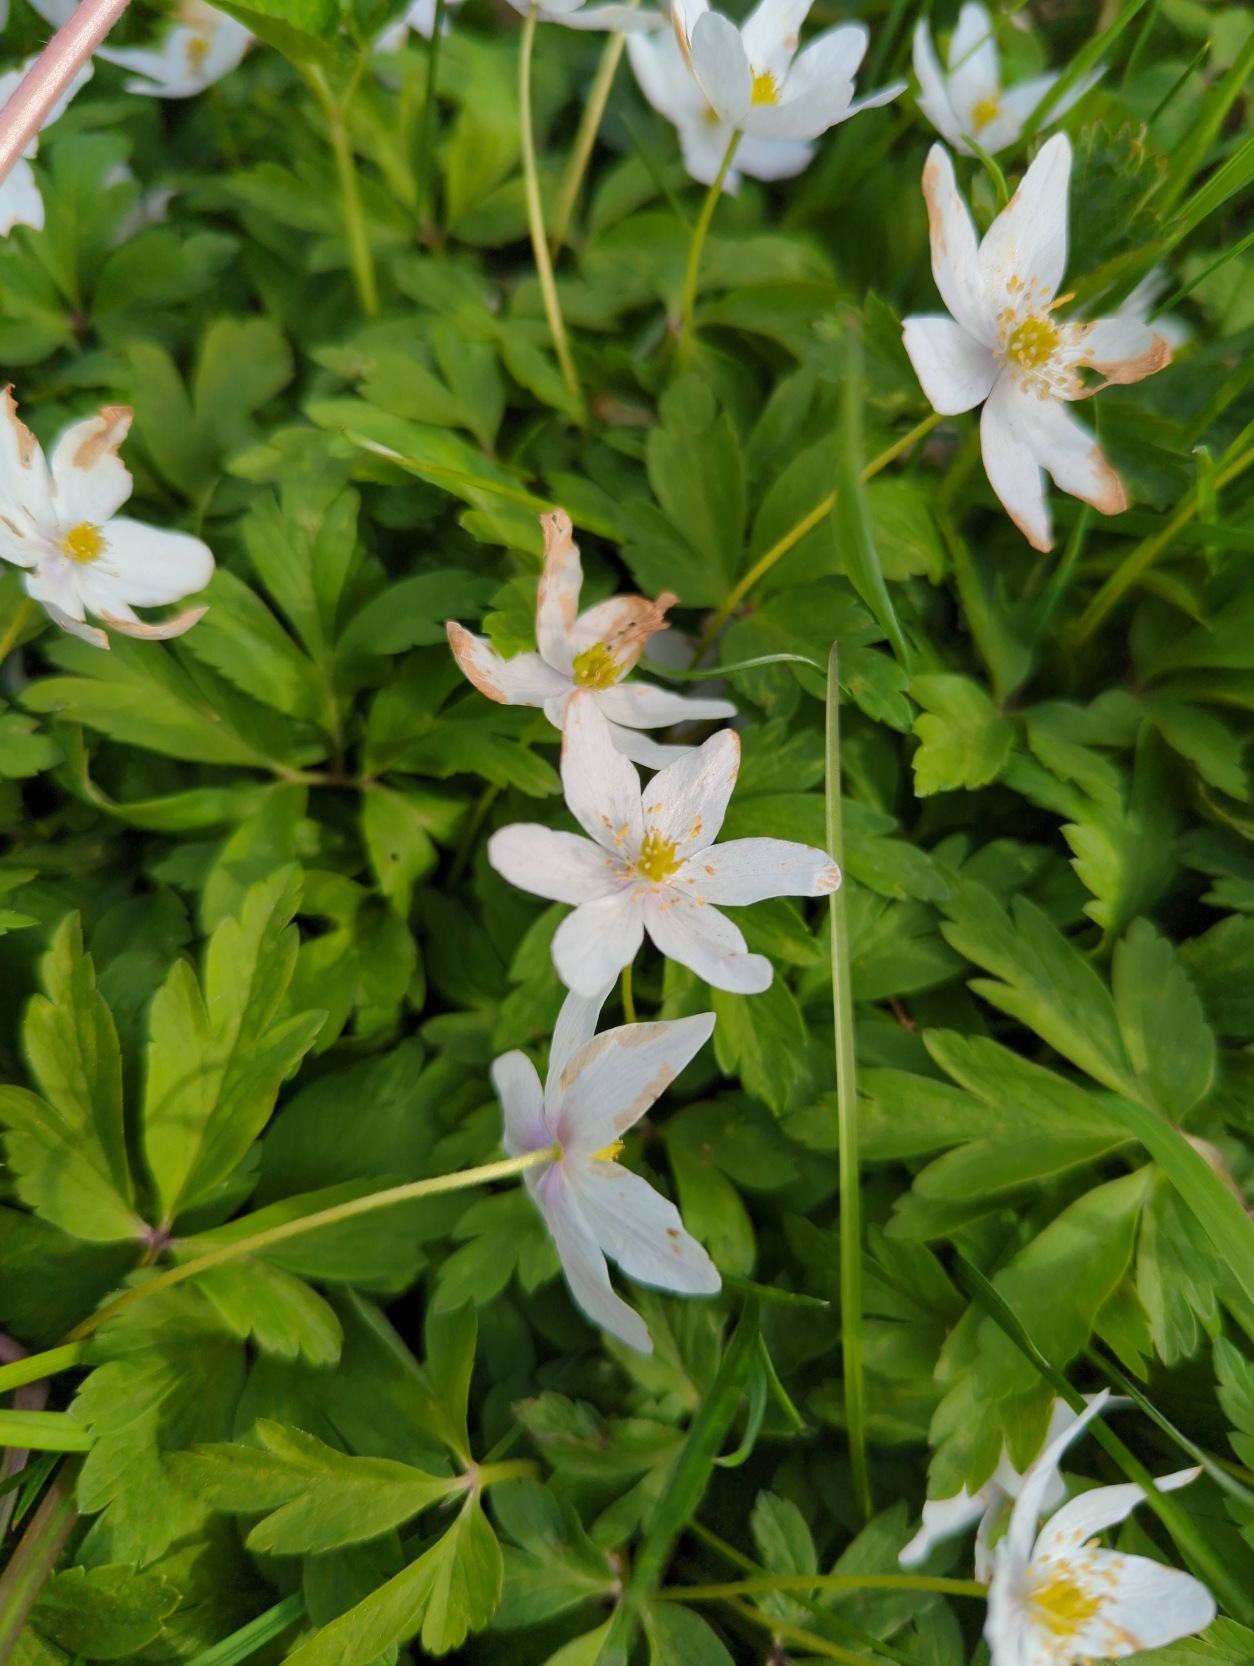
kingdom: Plantae
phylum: Tracheophyta
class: Magnoliopsida
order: Ranunculales
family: Ranunculaceae
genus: Anemone
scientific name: Anemone nemorosa
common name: Hvid anemone
